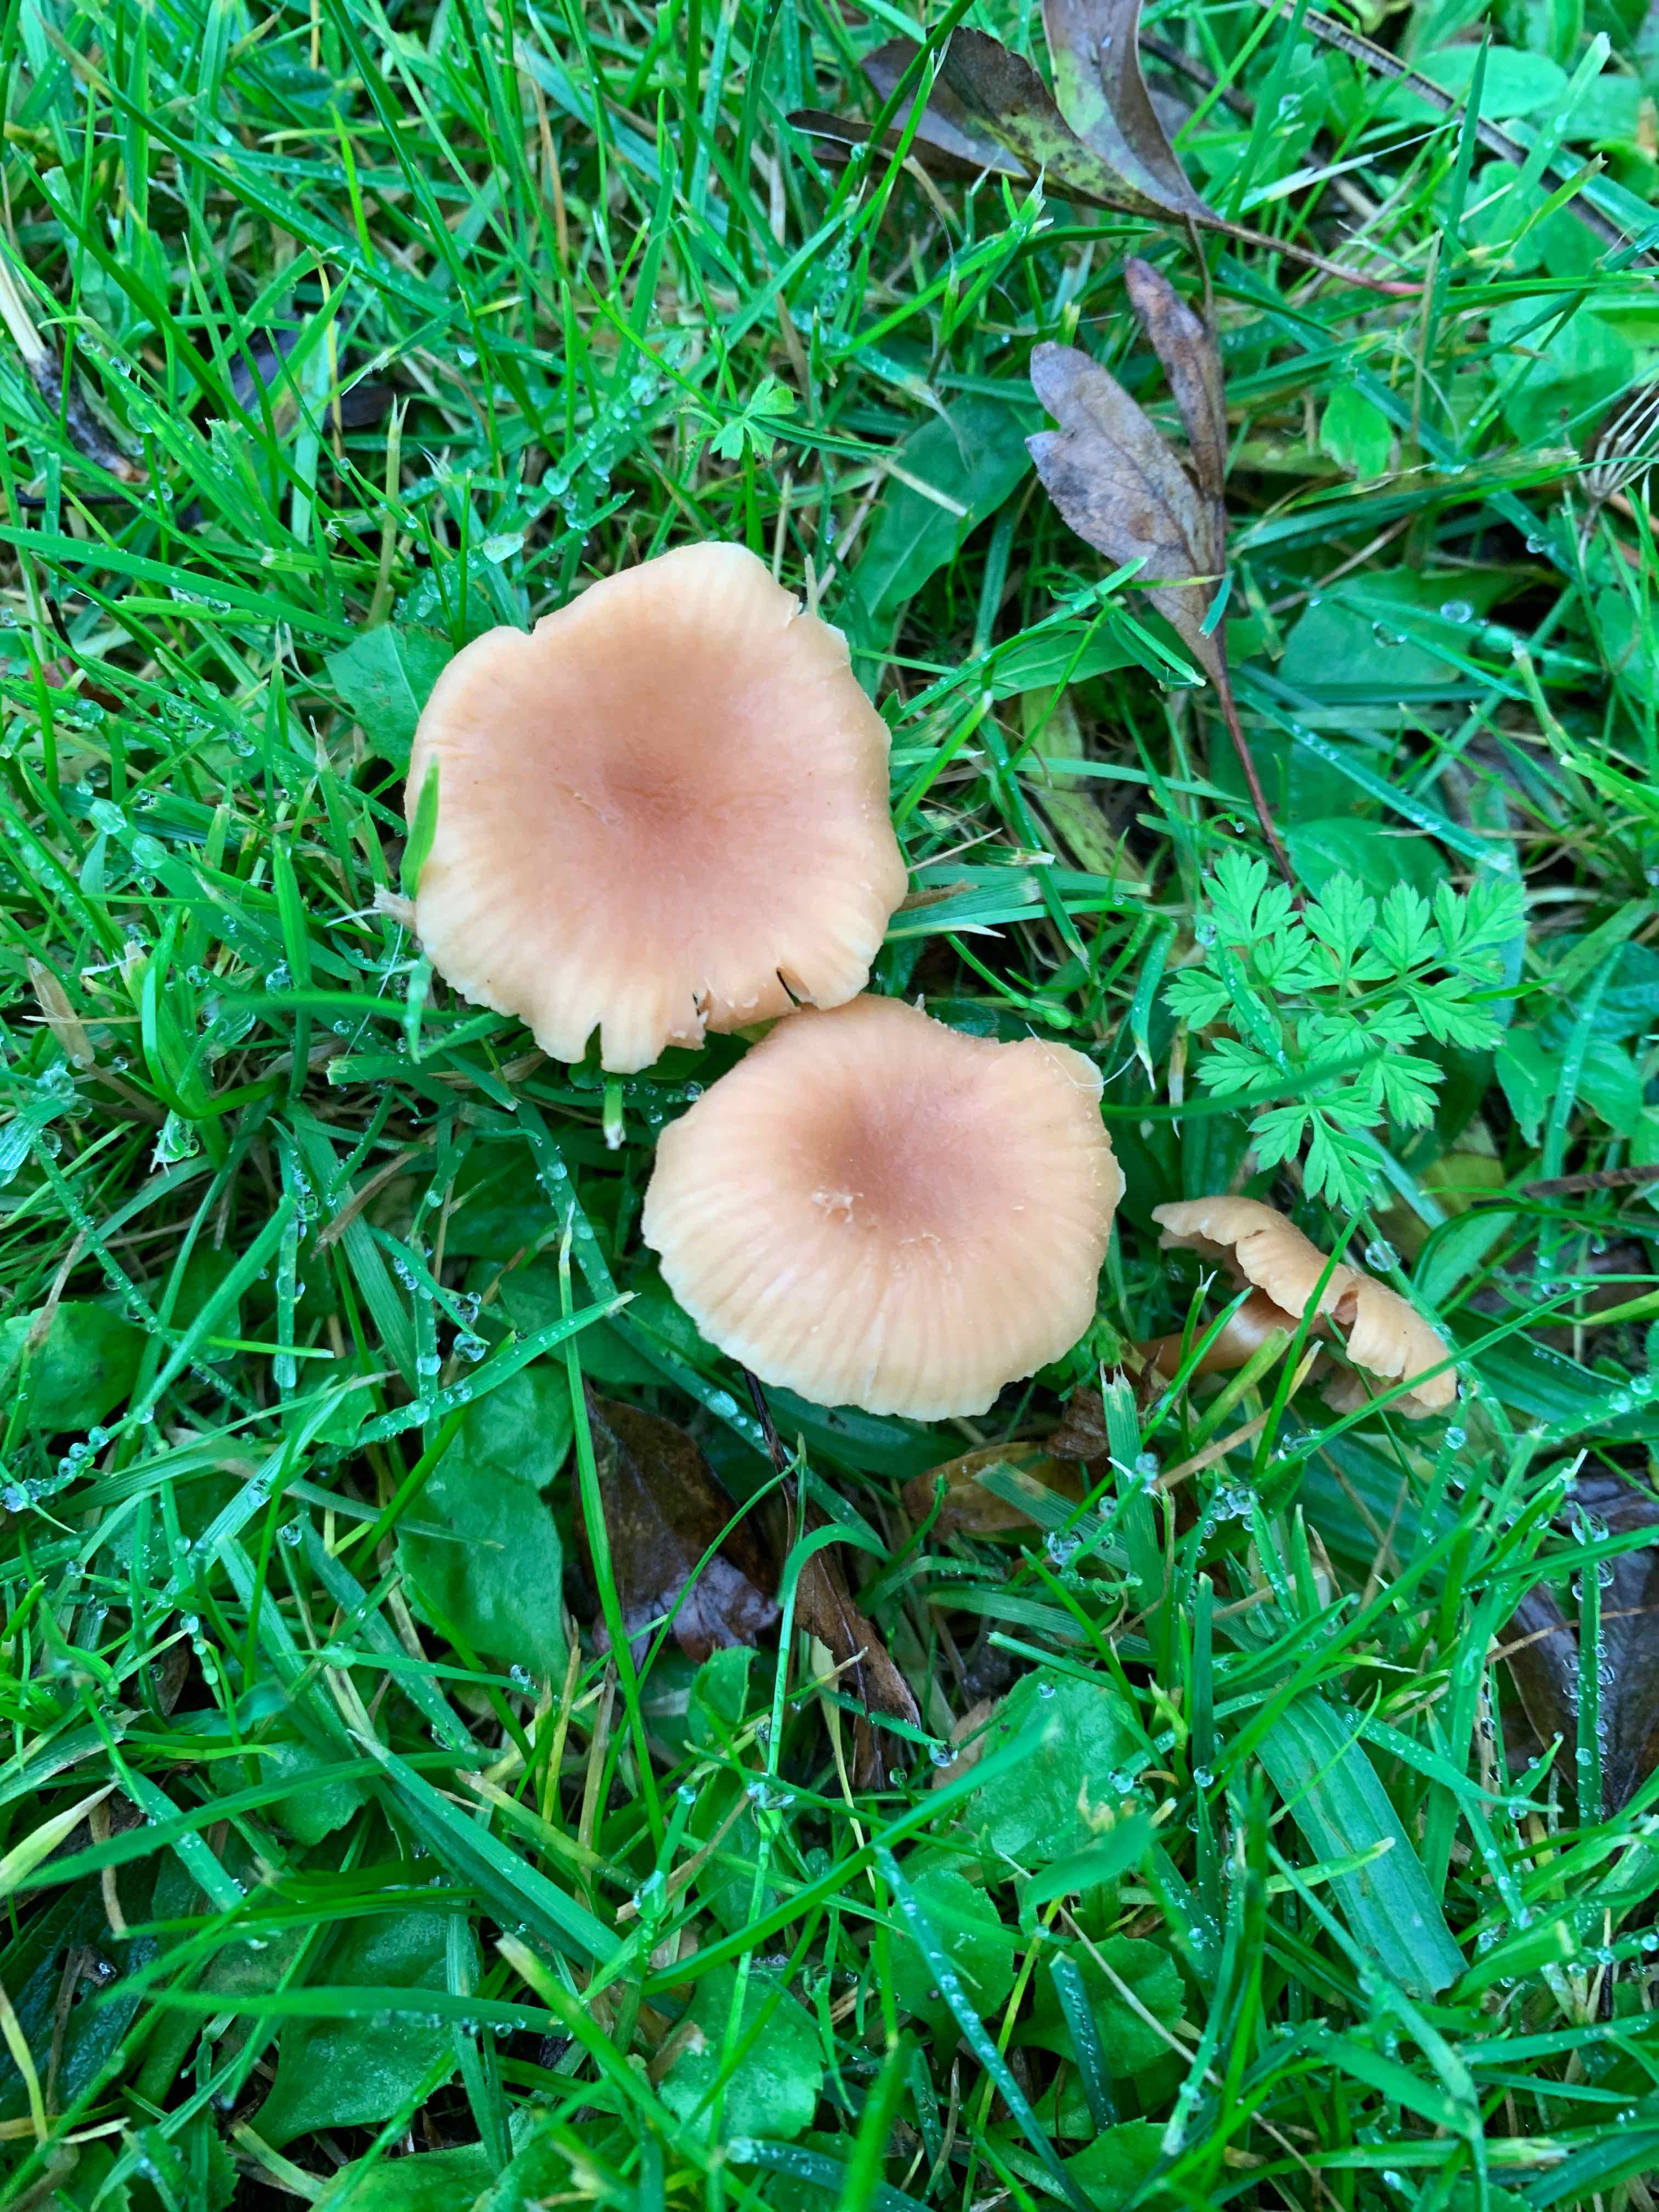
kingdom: Fungi
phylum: Basidiomycota
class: Agaricomycetes
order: Agaricales
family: Hydnangiaceae
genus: Laccaria
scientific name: Laccaria laccata
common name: rød ametysthat
